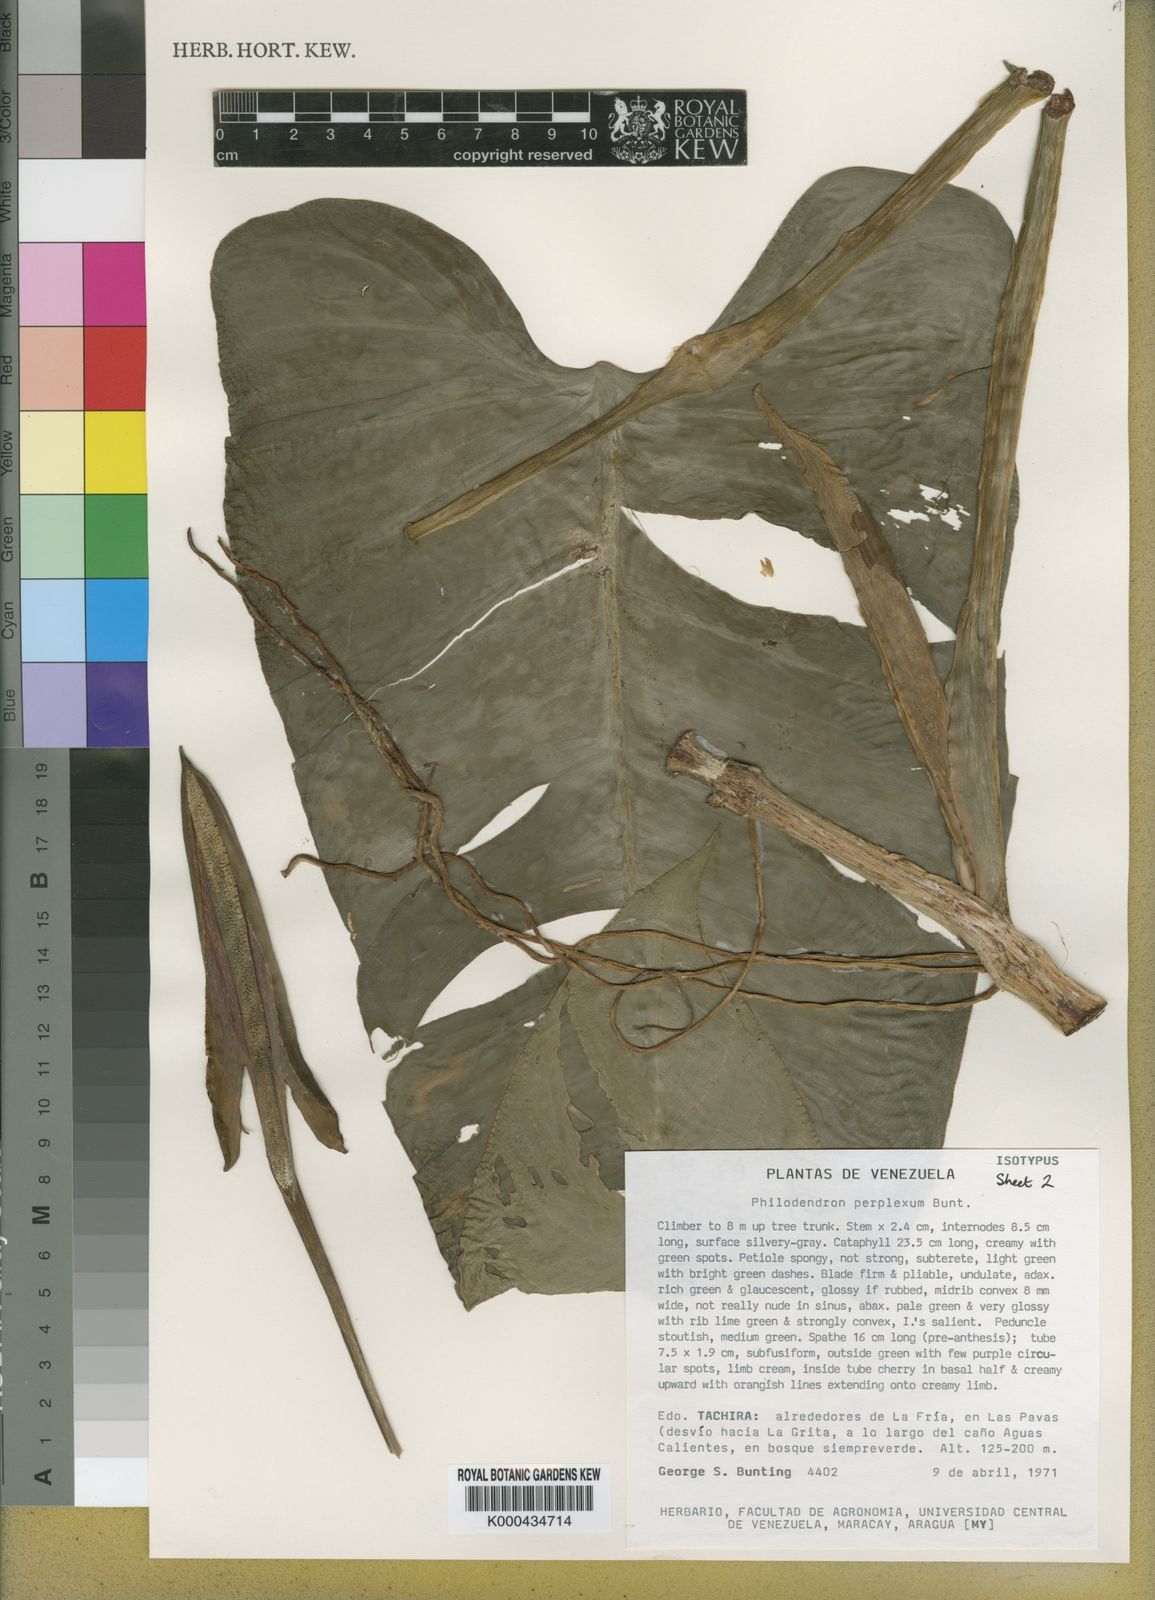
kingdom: Plantae
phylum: Tracheophyta
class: Liliopsida
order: Alismatales
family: Araceae
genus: Philodendron
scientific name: Philodendron perplexum
